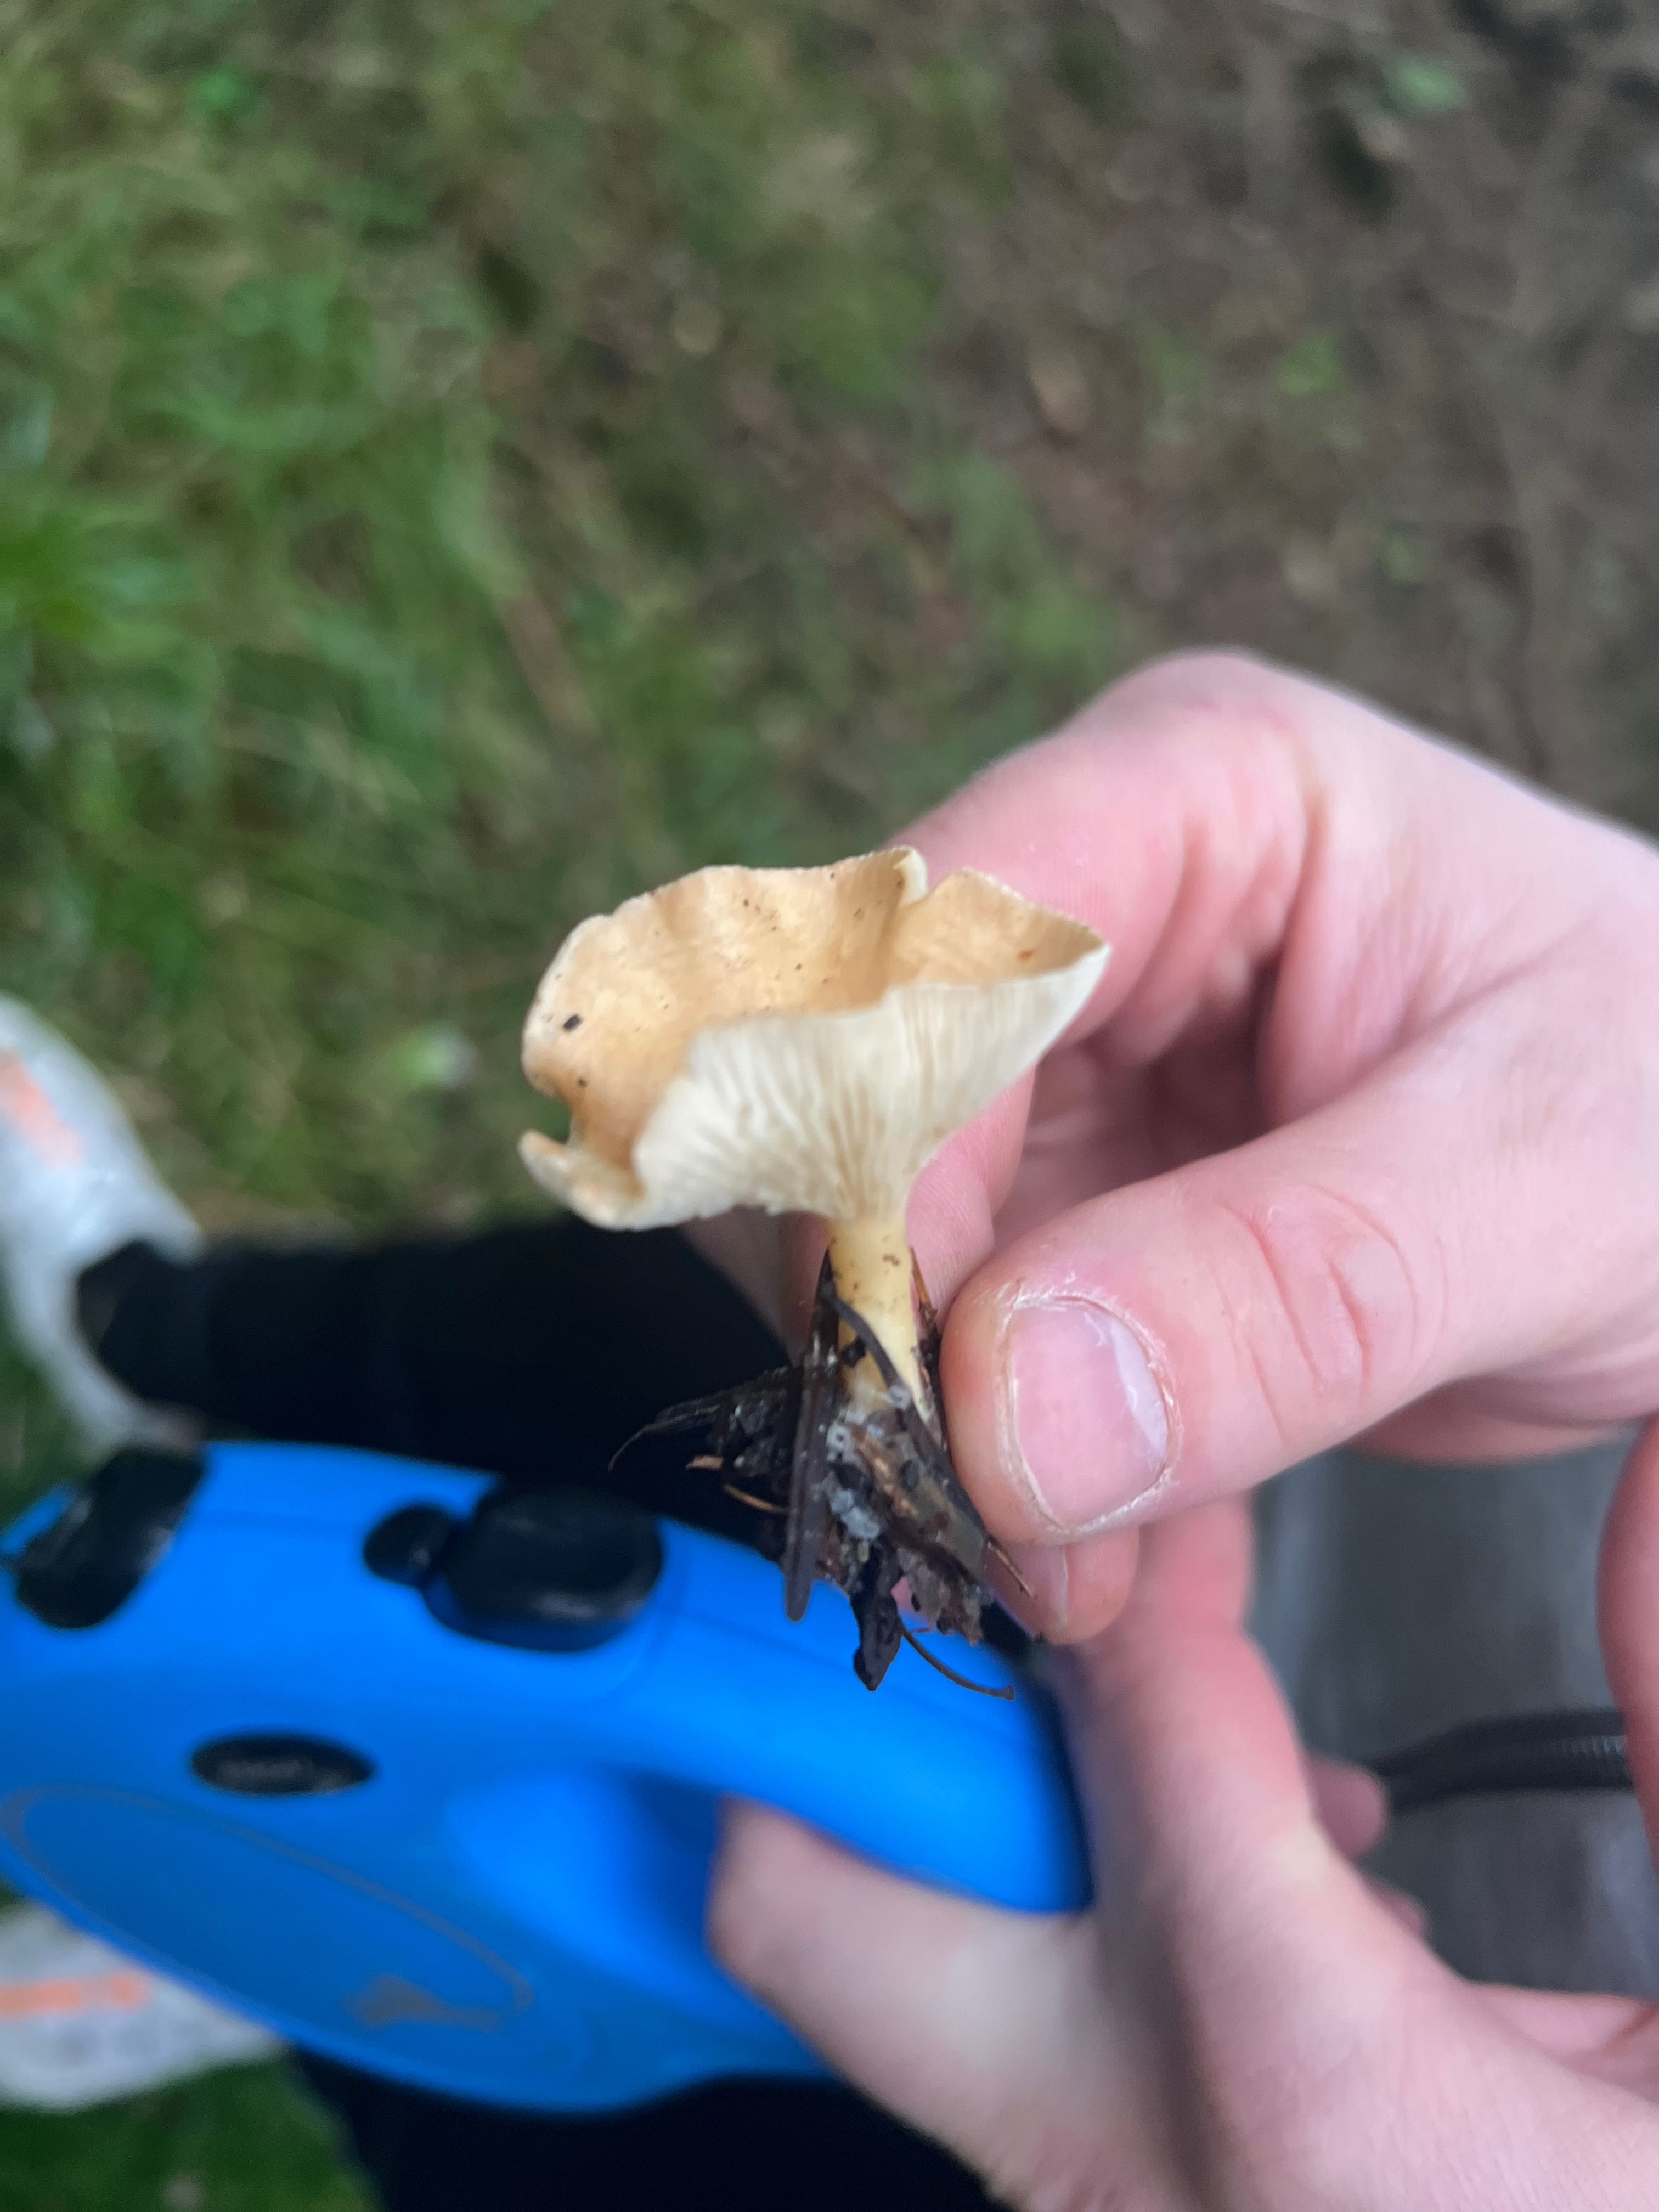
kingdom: Fungi
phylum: Basidiomycota
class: Agaricomycetes
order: Agaricales
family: Tricholomataceae
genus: Infundibulicybe
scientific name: Infundibulicybe
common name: tragthat
